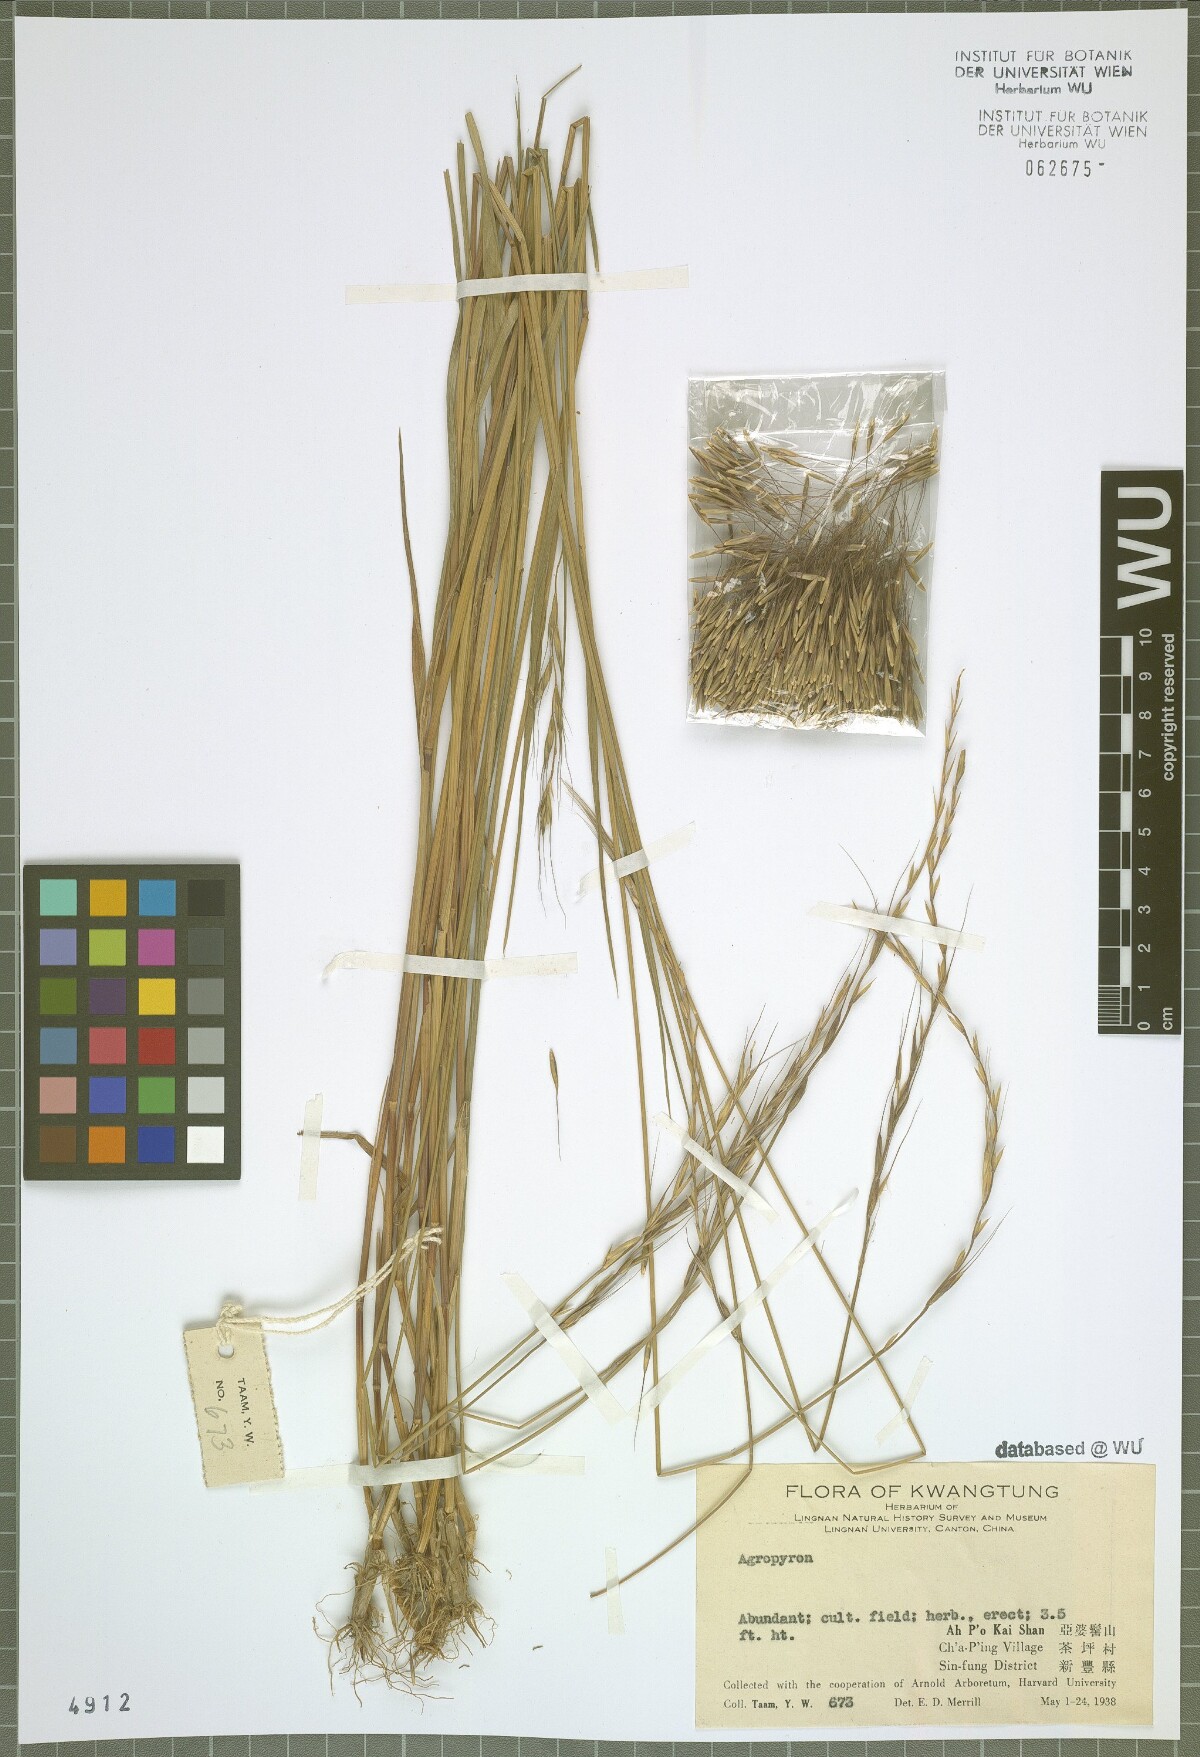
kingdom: Plantae
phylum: Tracheophyta
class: Liliopsida
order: Poales
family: Poaceae
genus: Agropyron
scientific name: Agropyron
